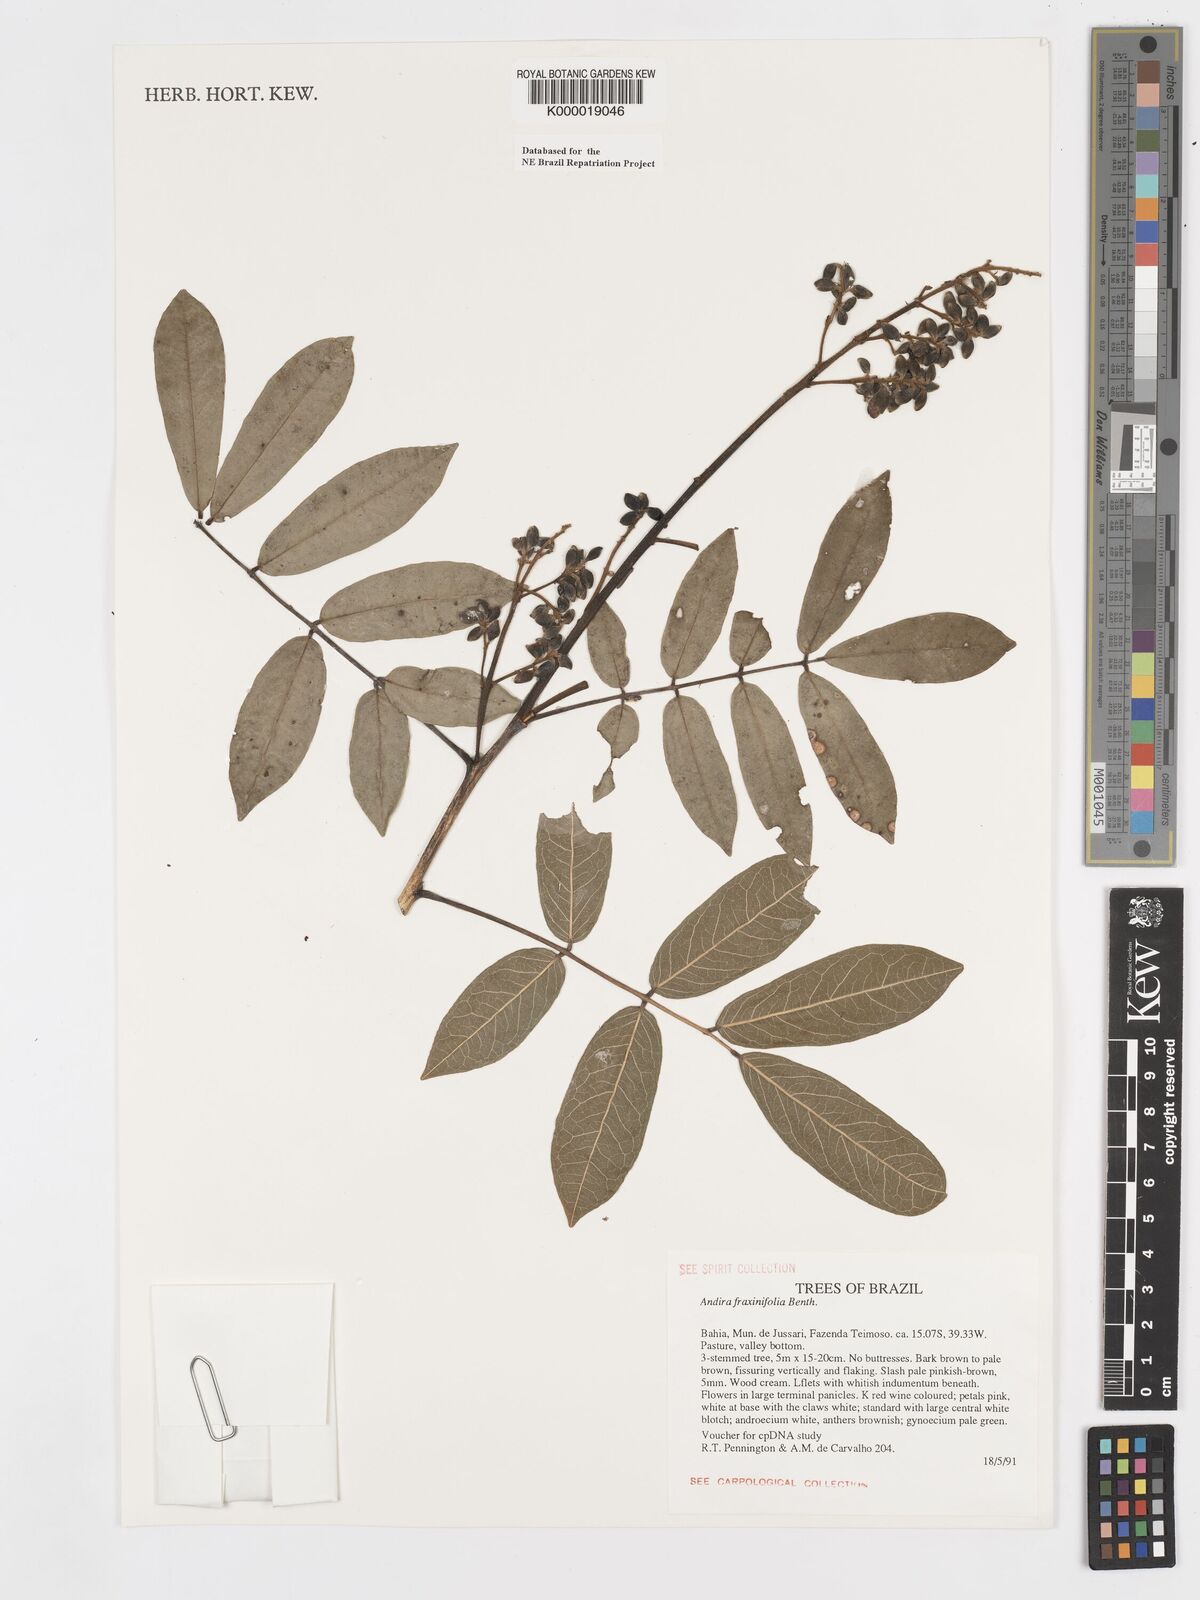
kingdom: Plantae
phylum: Tracheophyta
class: Magnoliopsida
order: Fabales
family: Fabaceae
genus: Andira
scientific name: Andira fraxinifolia
